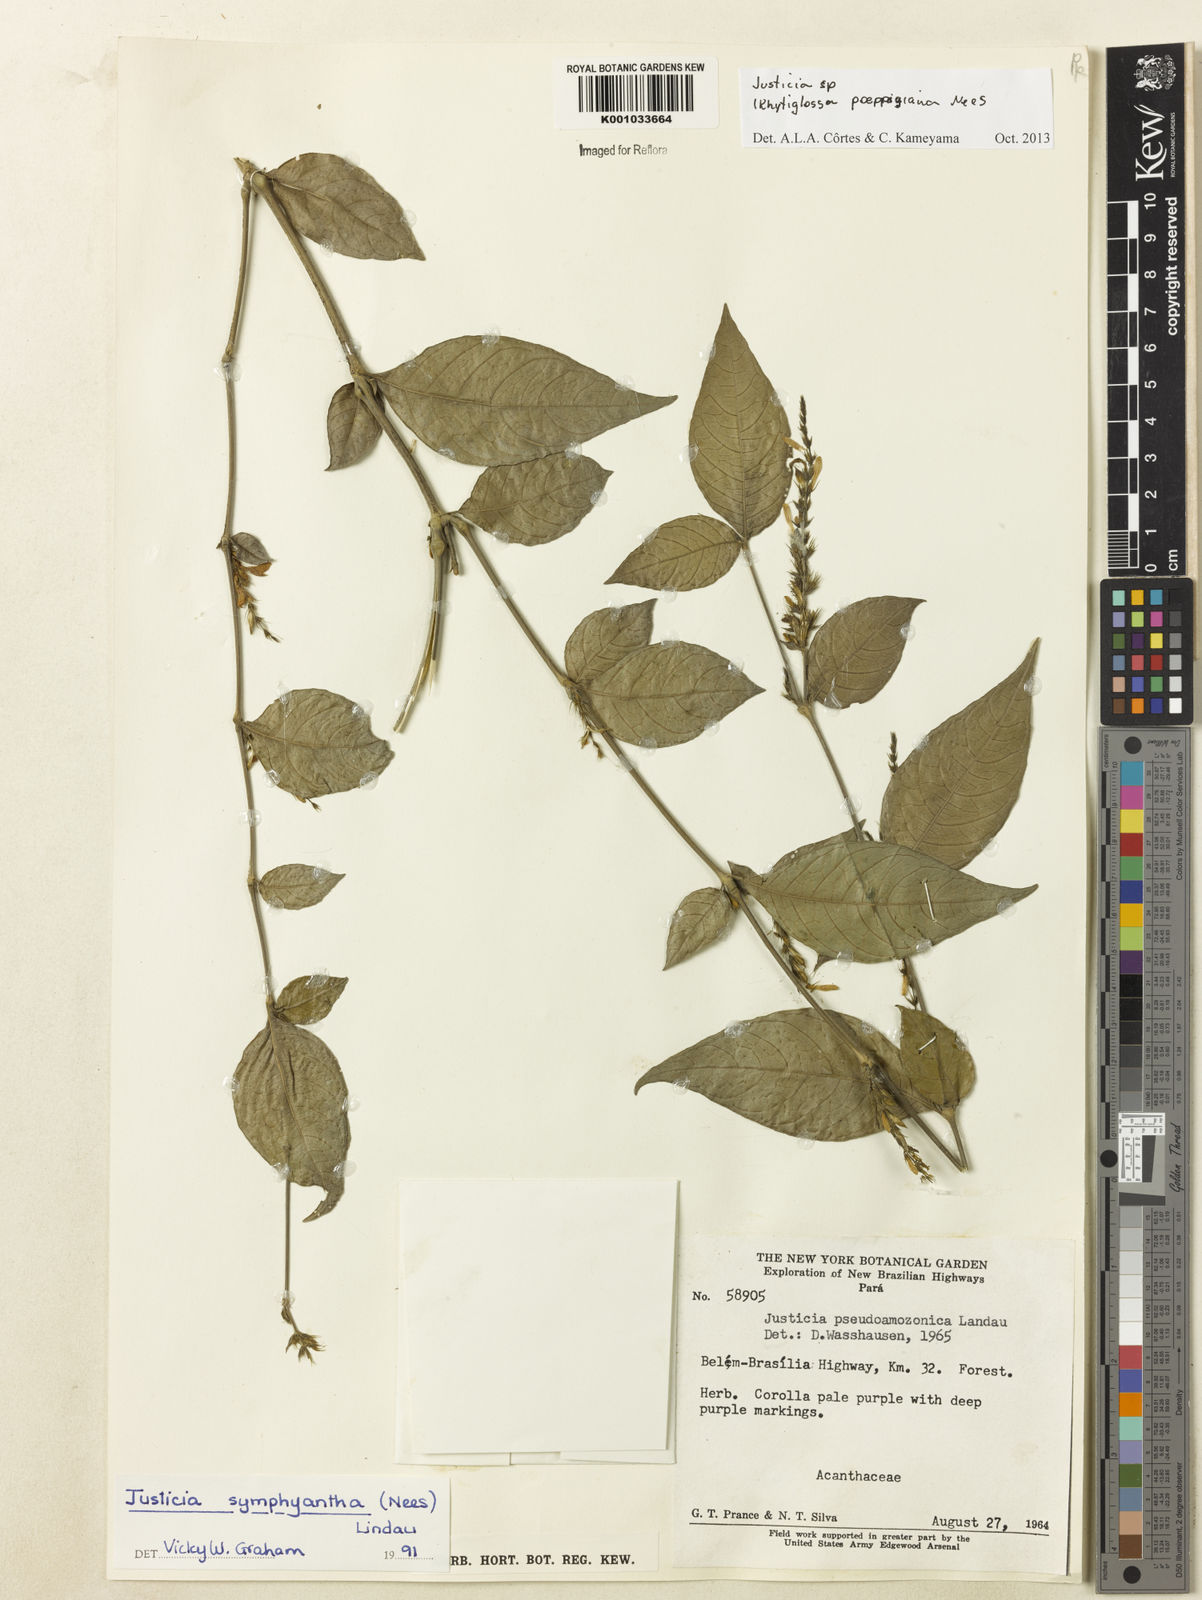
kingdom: Plantae
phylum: Tracheophyta
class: Magnoliopsida
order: Lamiales
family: Acanthaceae
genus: Justicia
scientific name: Justicia
